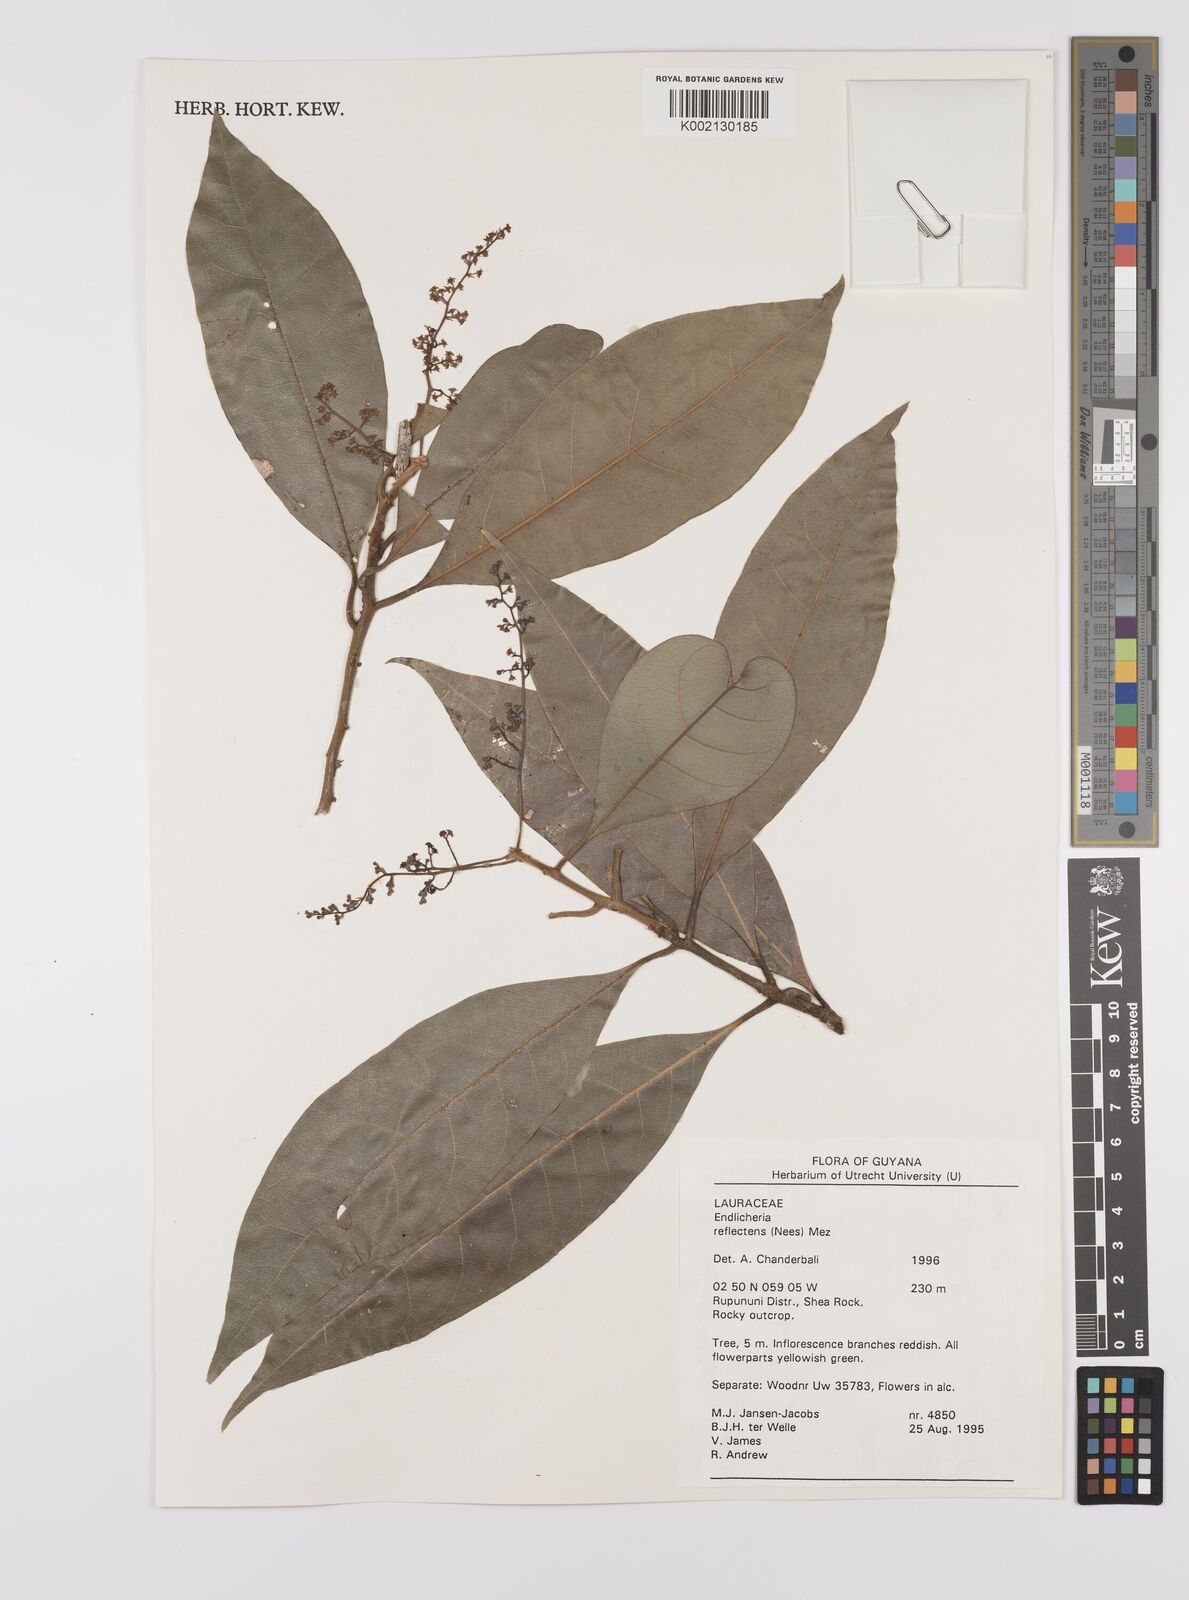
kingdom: Plantae
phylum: Tracheophyta
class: Magnoliopsida
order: Laurales
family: Lauraceae
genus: Endlicheria
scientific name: Endlicheria reflectens
